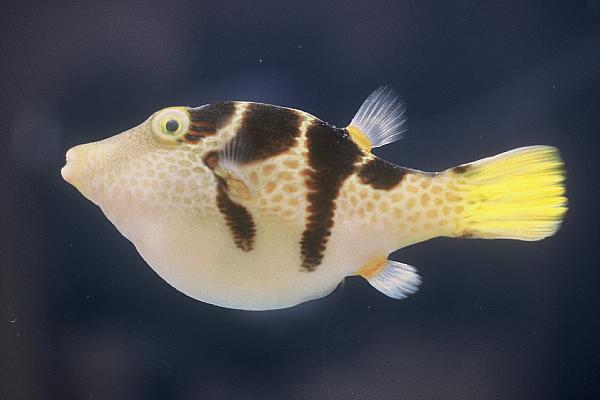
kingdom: Animalia
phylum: Chordata
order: Tetraodontiformes
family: Tetraodontidae
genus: Canthigaster
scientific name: Canthigaster valentini
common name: Banded toby
